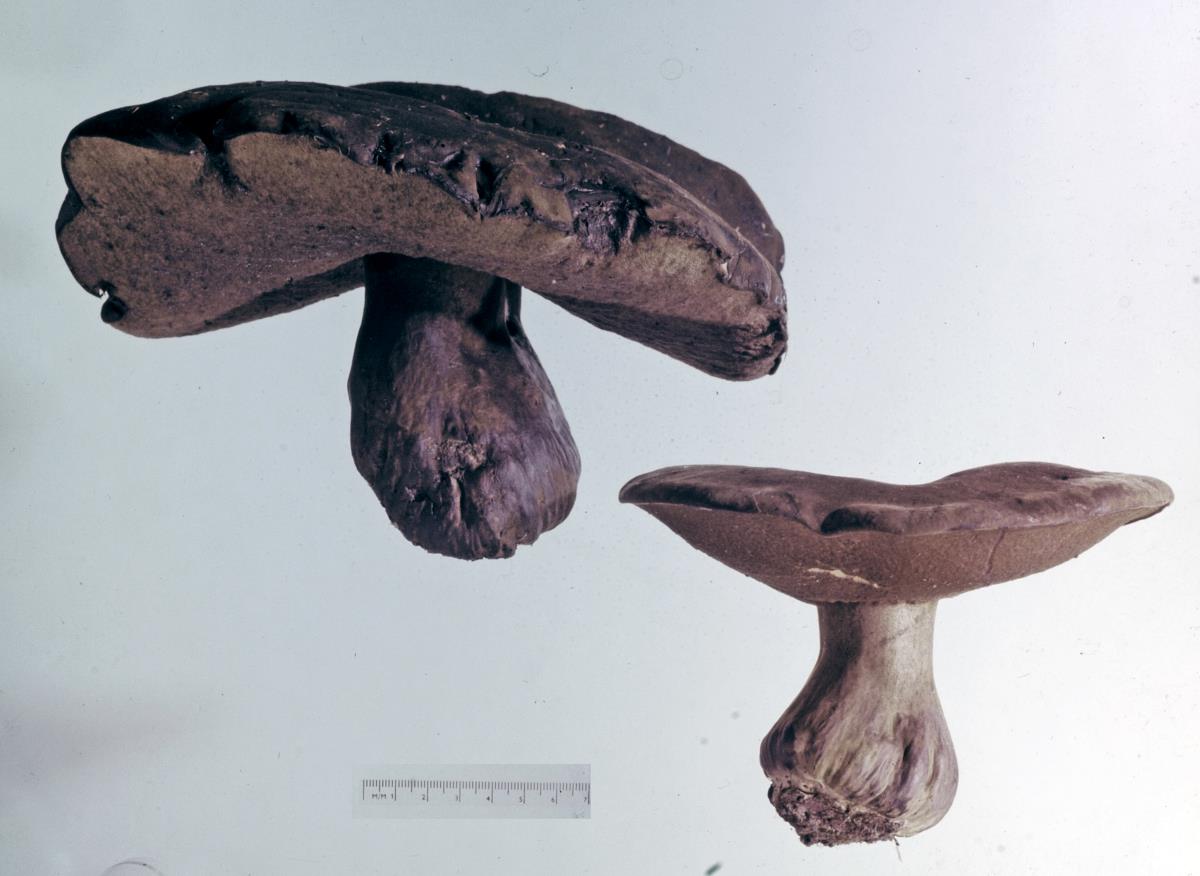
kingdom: Fungi
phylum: Basidiomycota
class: Agaricomycetes
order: Boletales
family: Boletinellaceae
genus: Phlebopus
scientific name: Phlebopus portentosus
